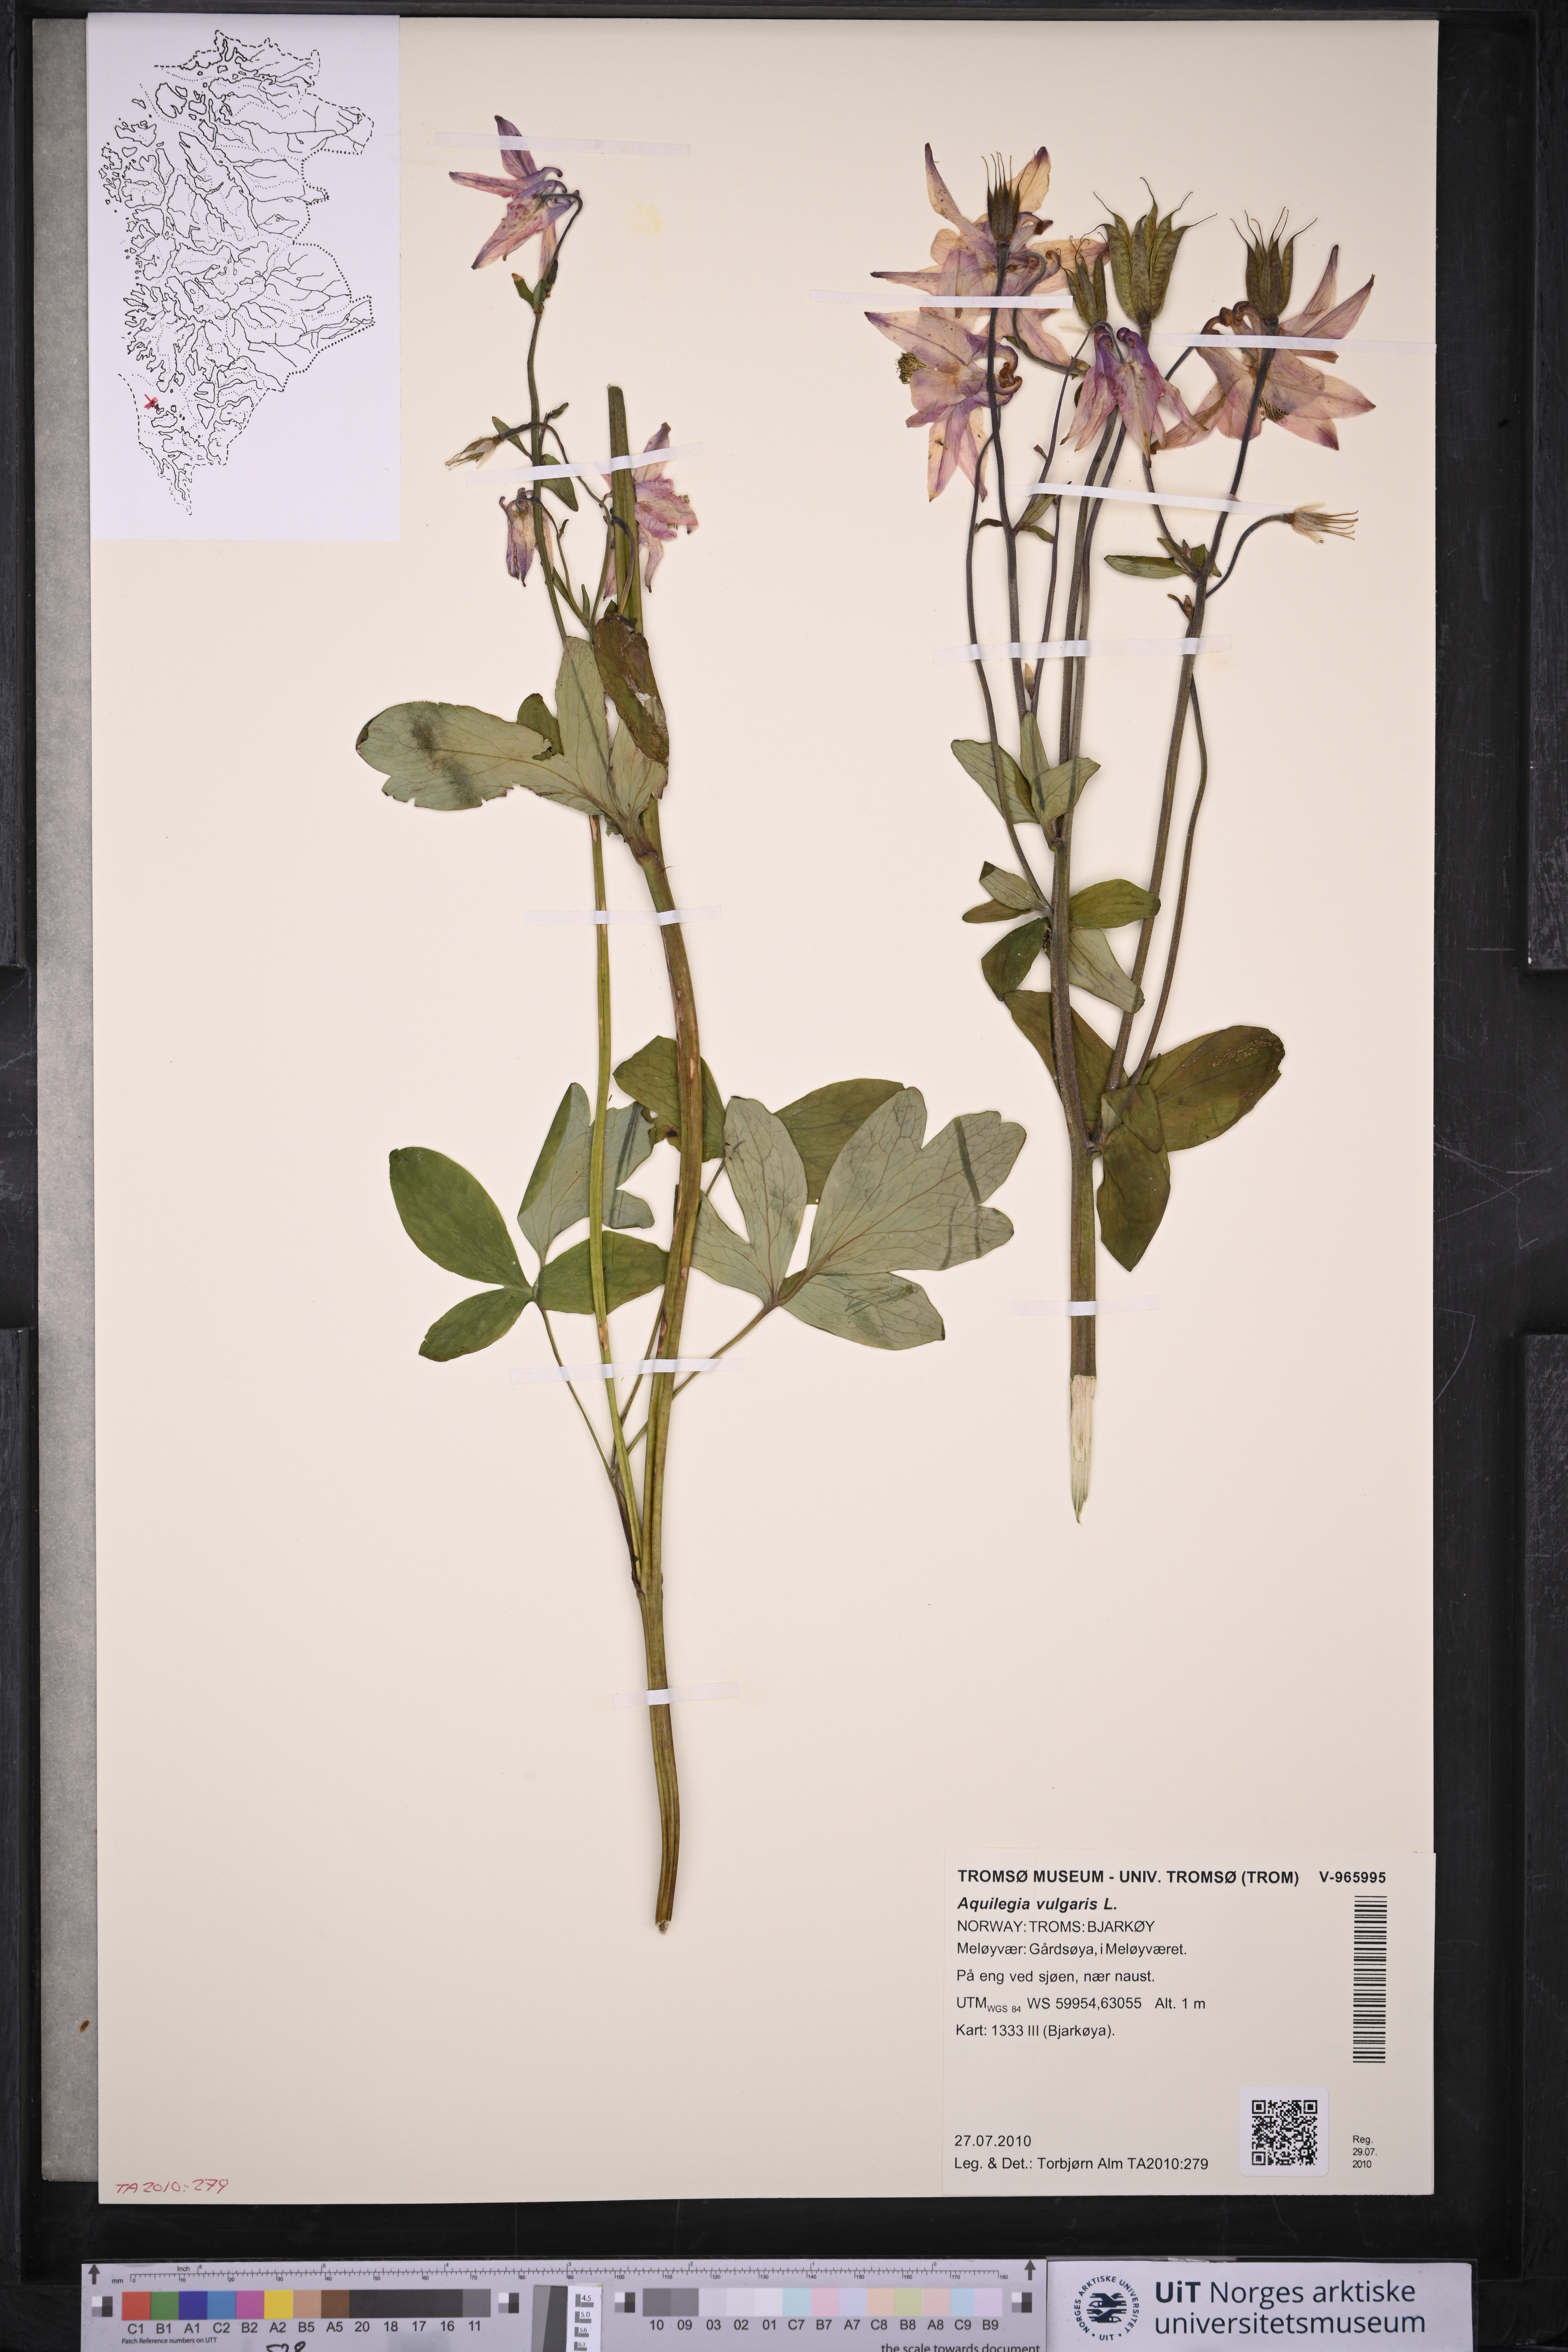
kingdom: Plantae
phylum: Tracheophyta
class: Magnoliopsida
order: Ranunculales
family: Ranunculaceae
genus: Aquilegia
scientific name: Aquilegia vulgaris
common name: Columbine
